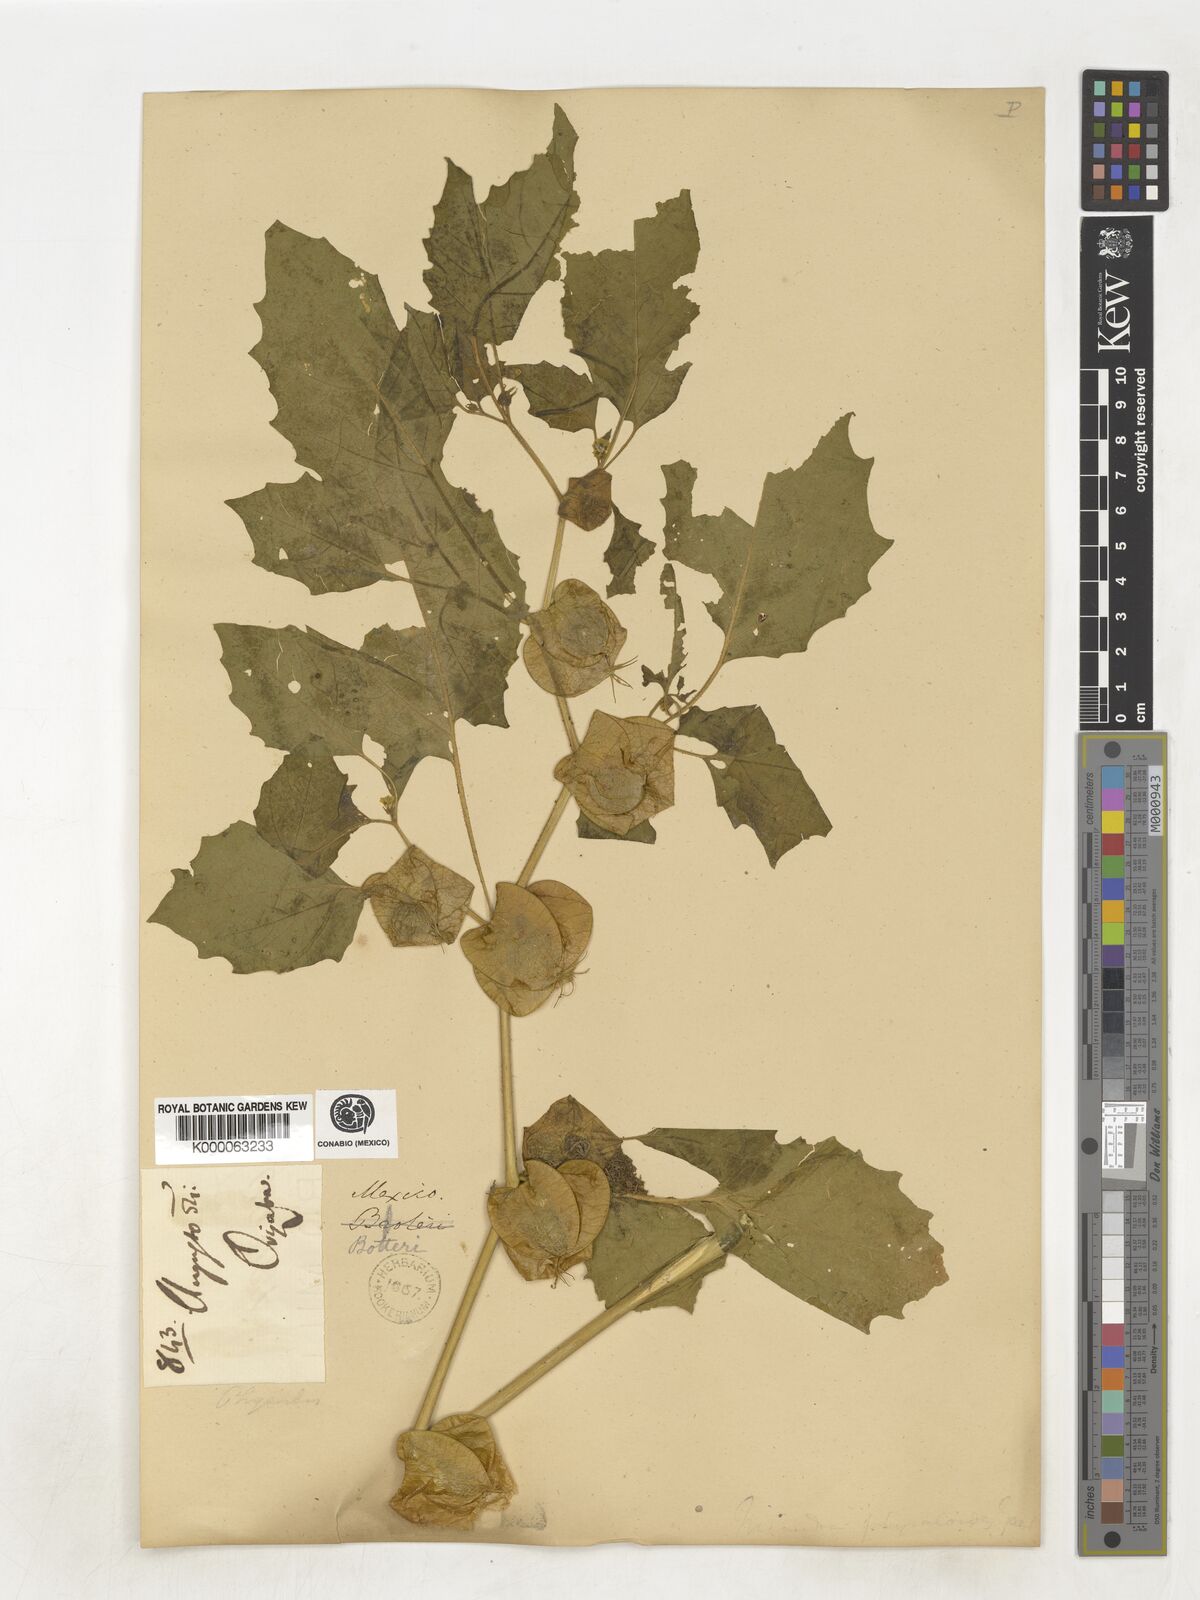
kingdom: Plantae
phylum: Tracheophyta
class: Magnoliopsida
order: Solanales
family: Solanaceae
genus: Nicandra
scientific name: Nicandra
